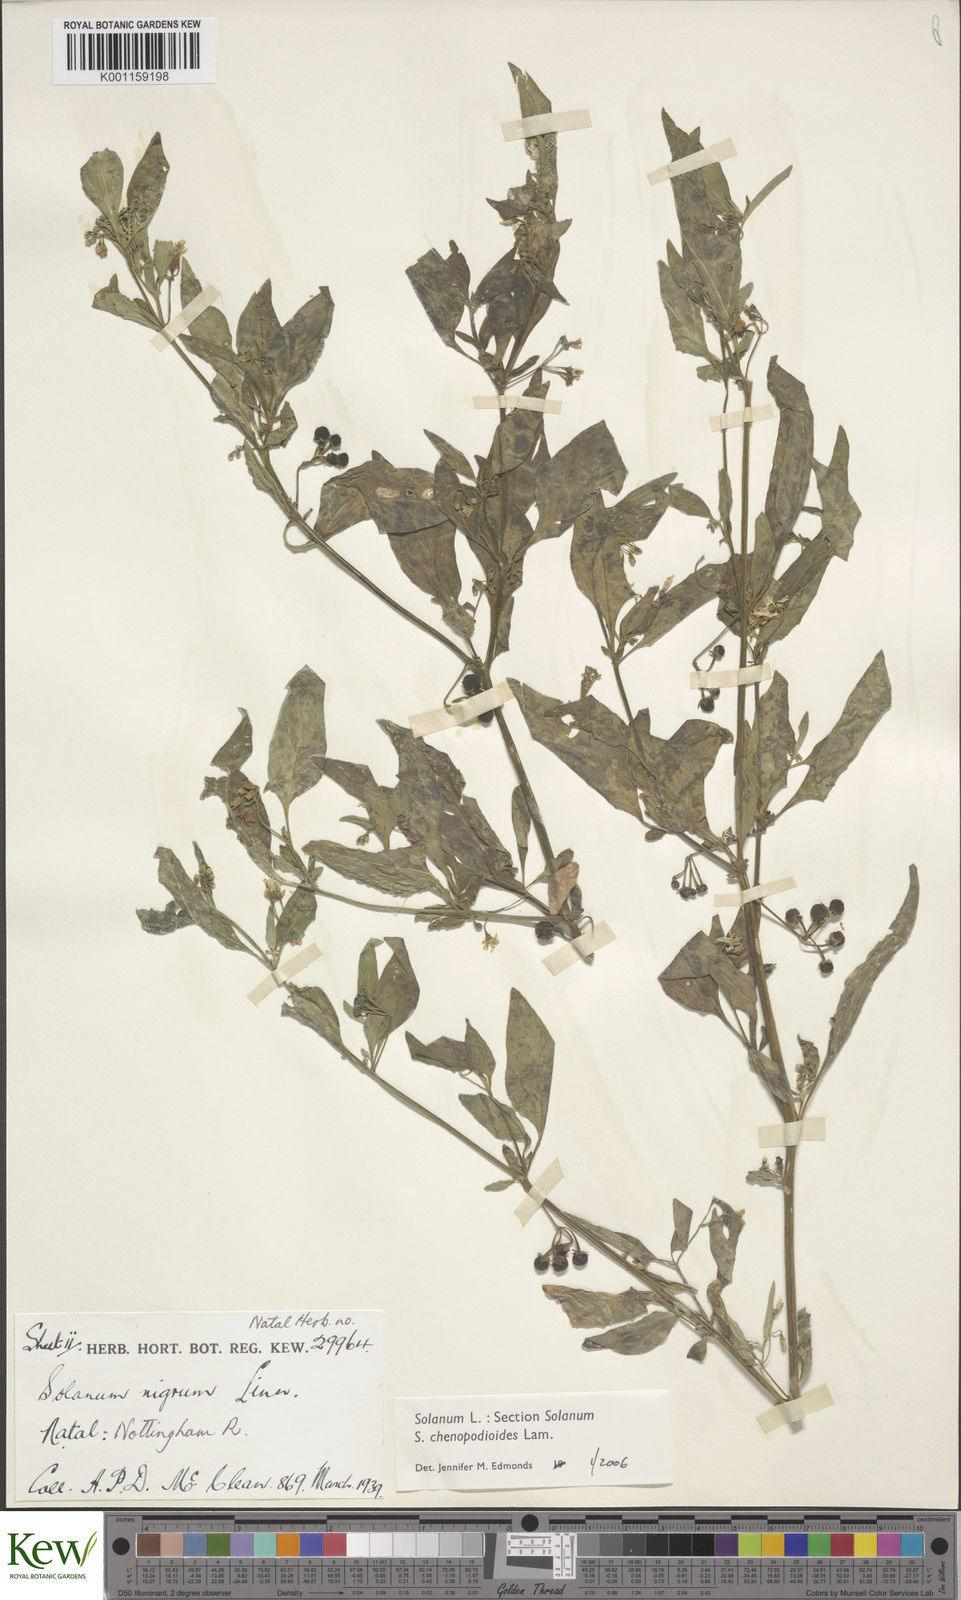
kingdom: Plantae
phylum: Tracheophyta
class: Magnoliopsida
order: Solanales
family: Solanaceae
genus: Solanum
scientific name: Solanum chenopodioides
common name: Tall nightshade
